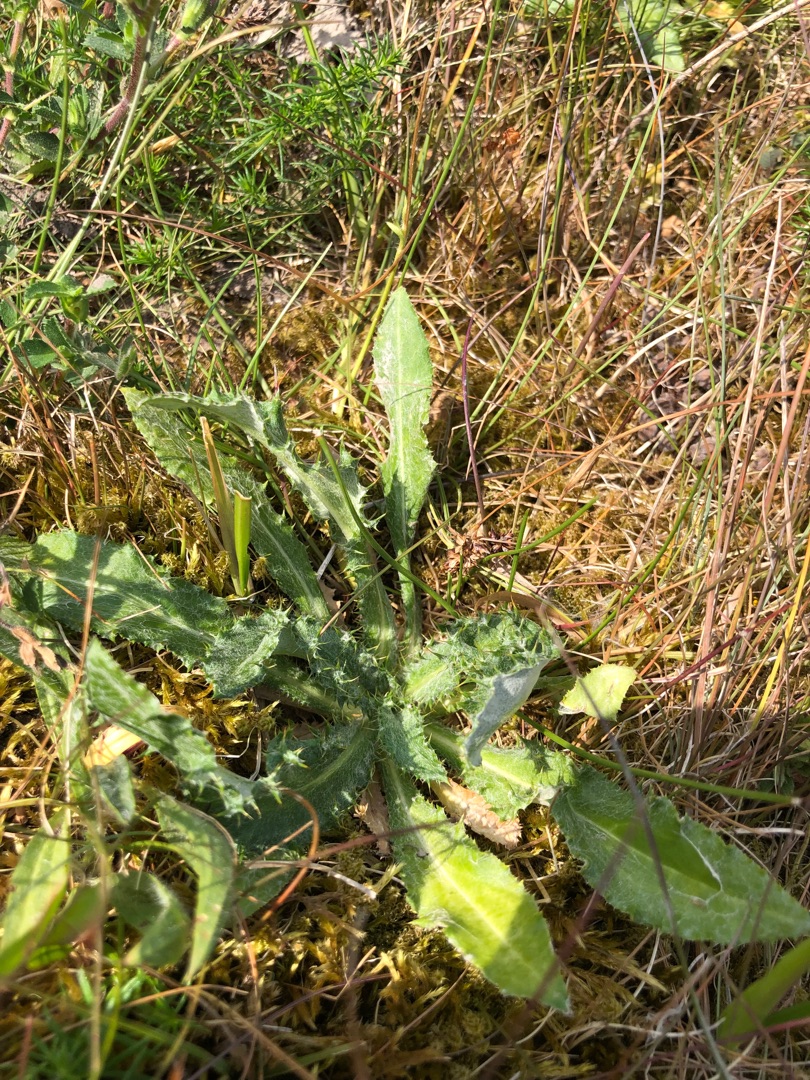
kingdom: Plantae
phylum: Tracheophyta
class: Magnoliopsida
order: Asterales
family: Asteraceae
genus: Carlina
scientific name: Carlina vulgaris
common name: Bakketidsel
